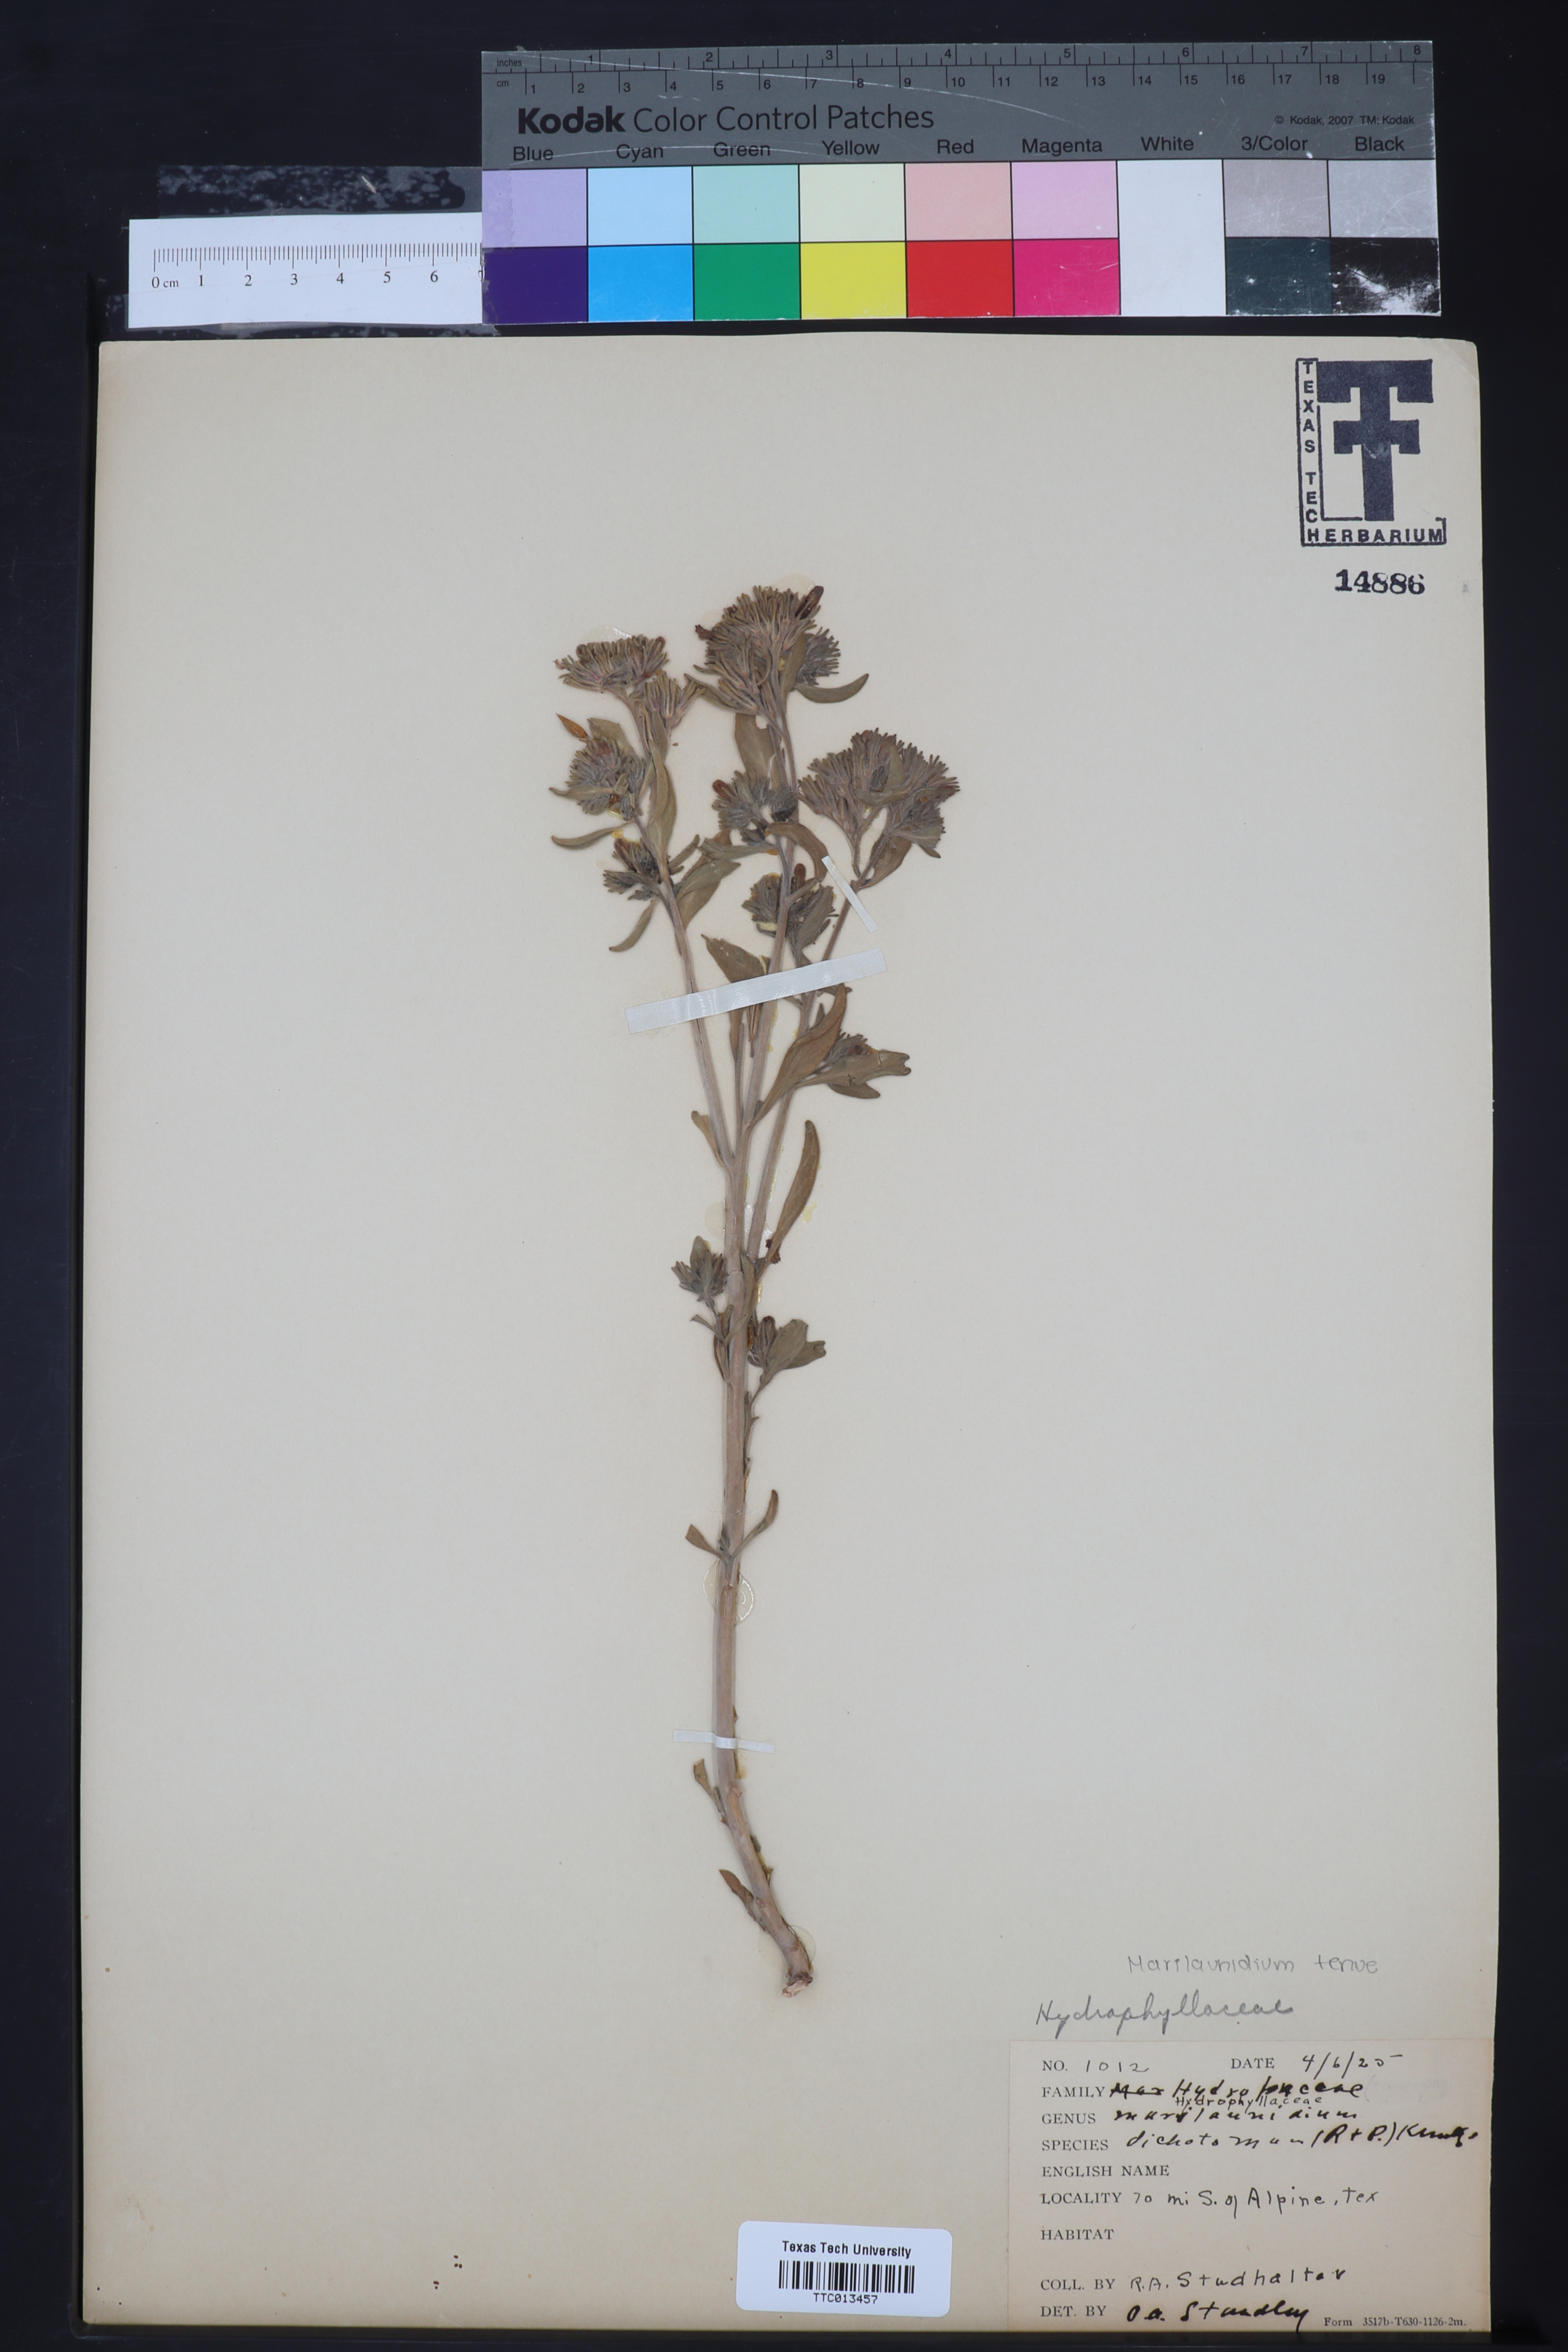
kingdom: Plantae
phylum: Tracheophyta
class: Magnoliopsida
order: Boraginales
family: Namaceae
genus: Nama
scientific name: Nama dichotoma
